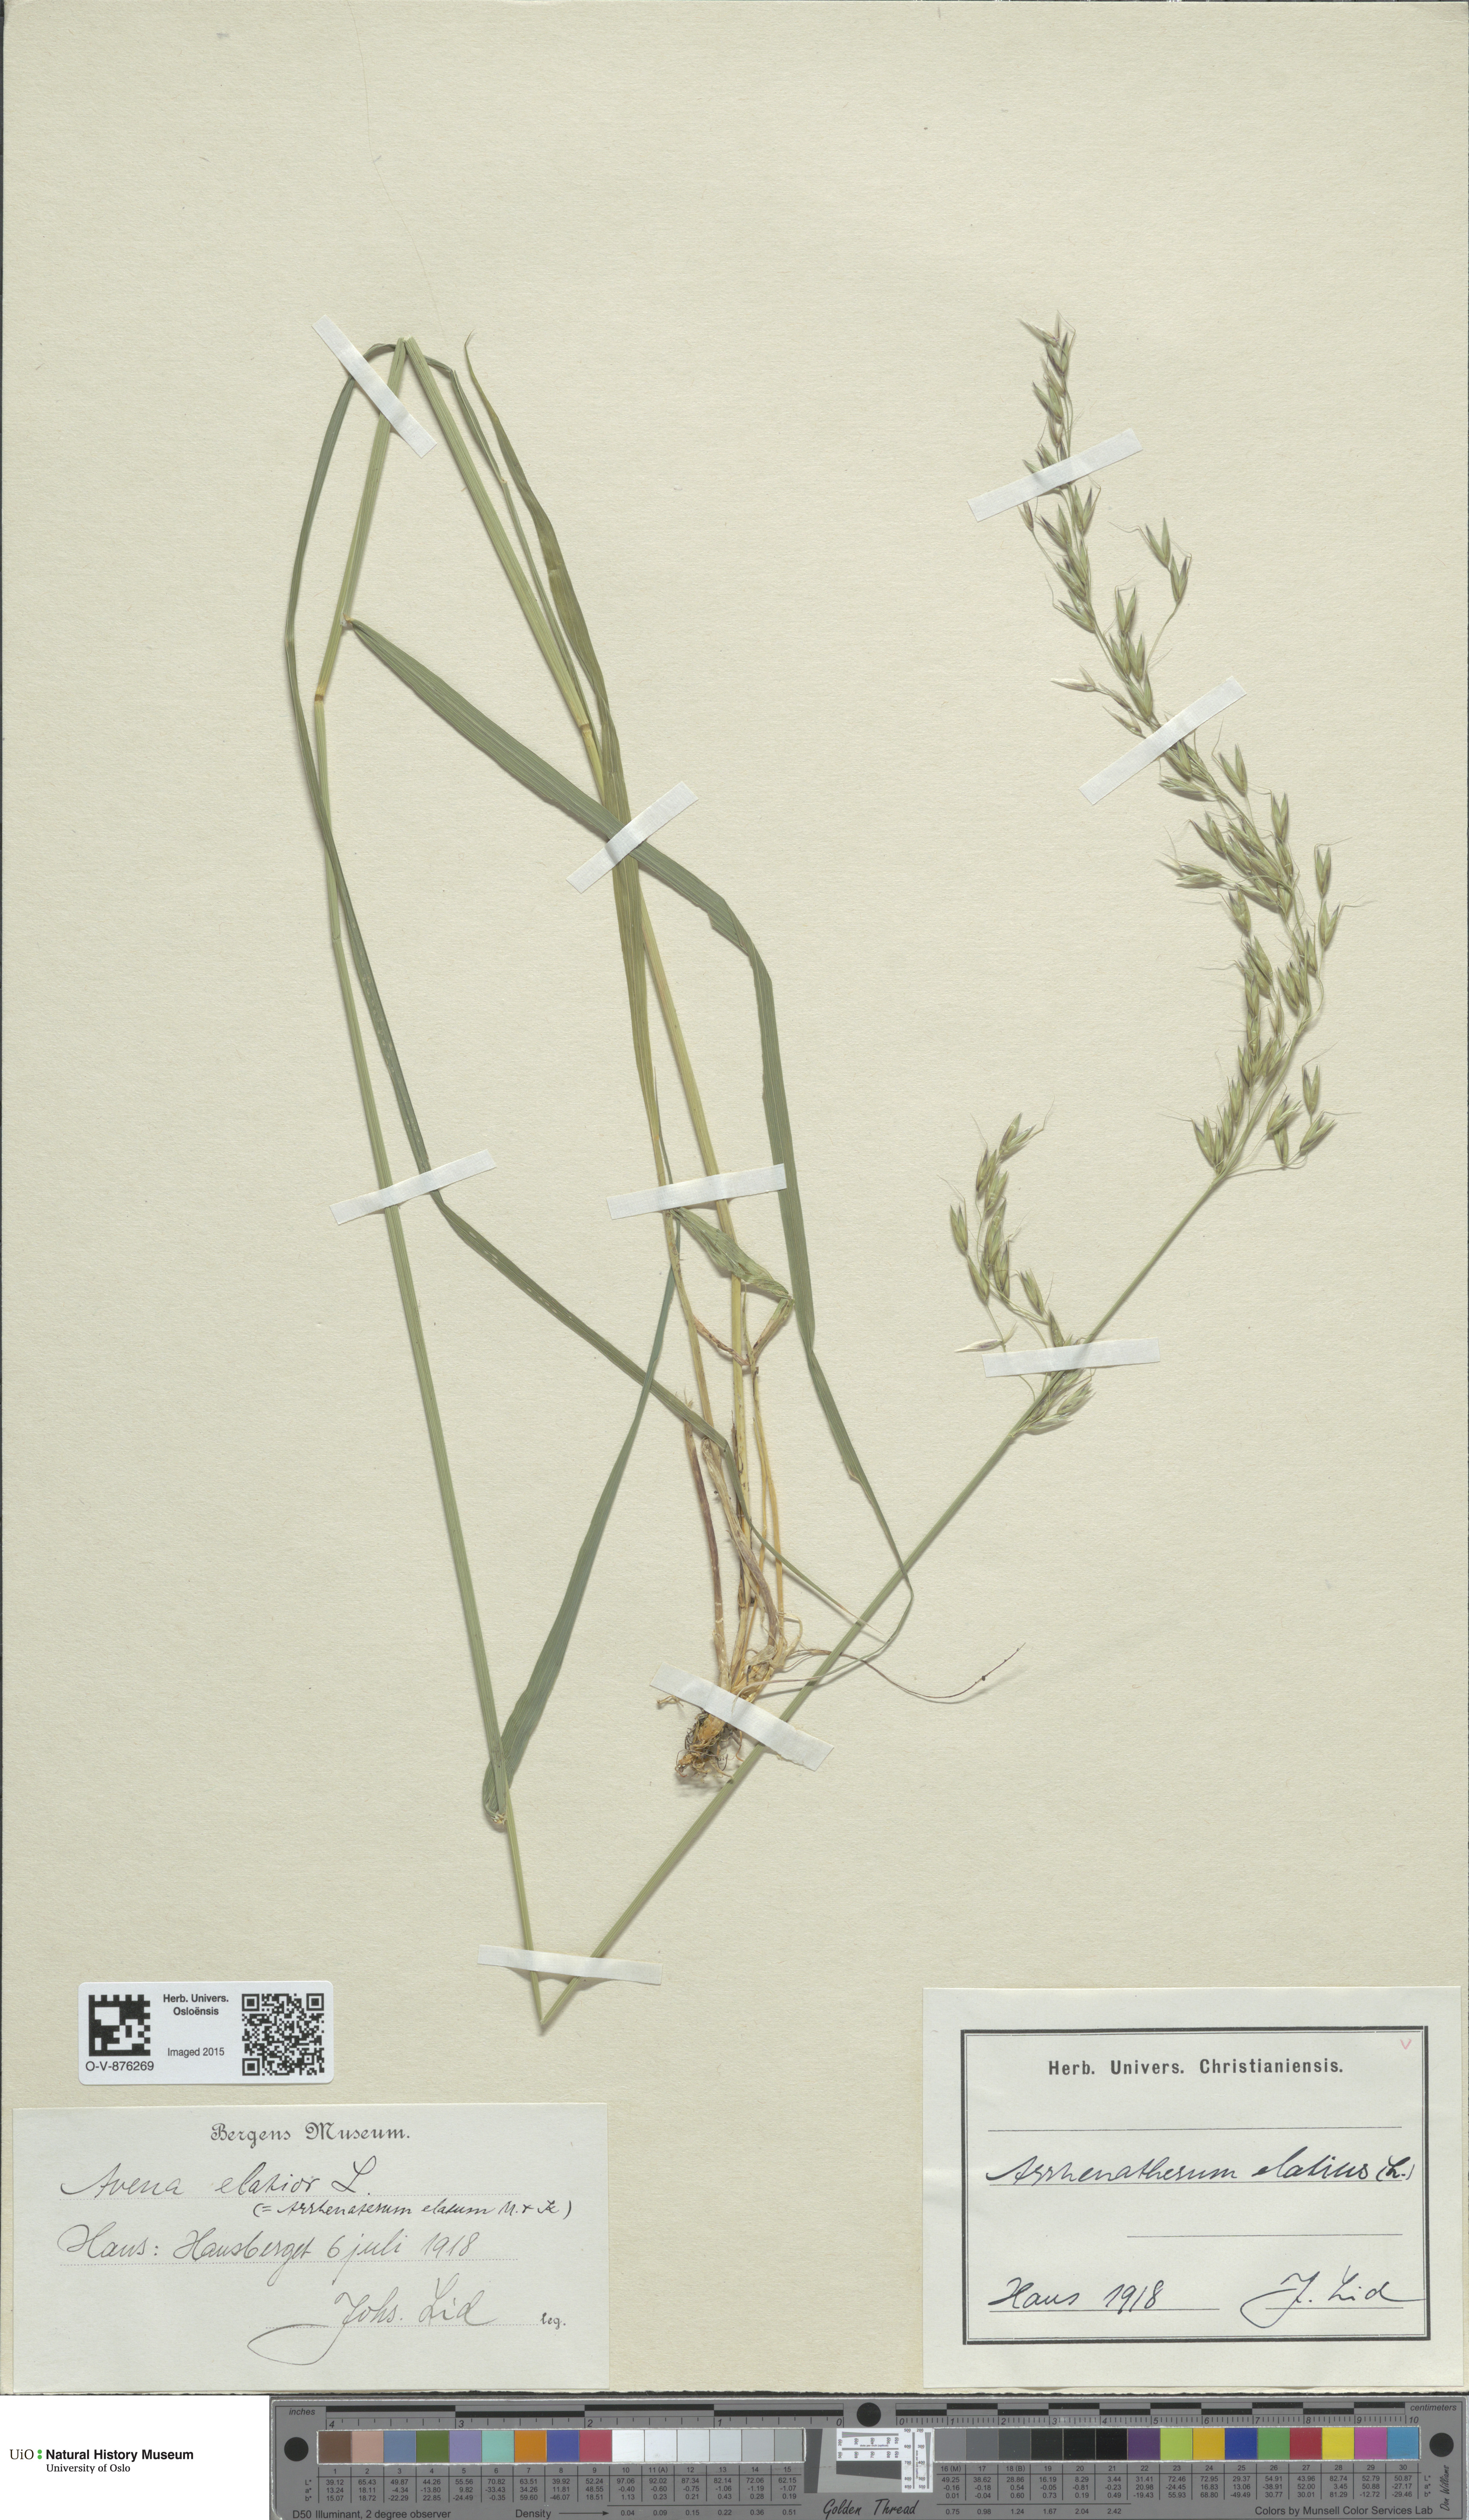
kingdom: Plantae
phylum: Tracheophyta
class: Liliopsida
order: Poales
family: Poaceae
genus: Arrhenatherum
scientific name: Arrhenatherum elatius
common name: Tall oatgrass
